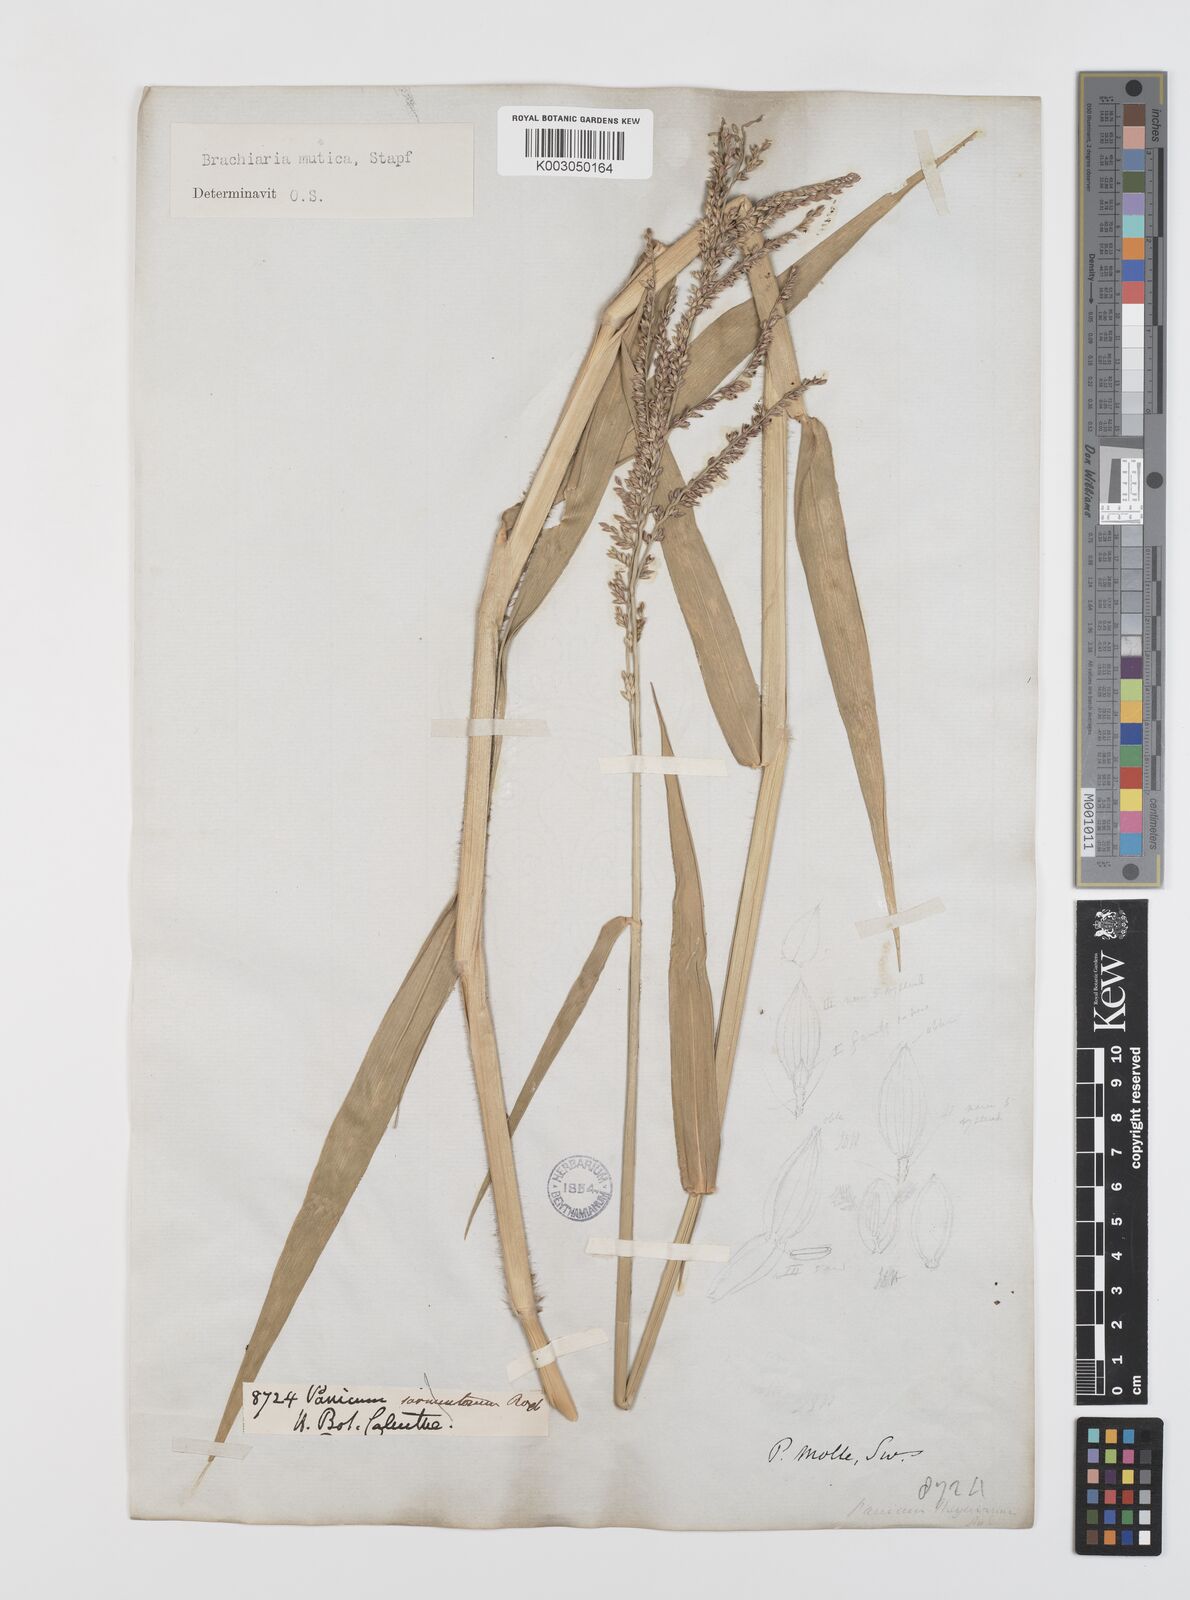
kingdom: Plantae
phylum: Tracheophyta
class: Liliopsida
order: Poales
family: Poaceae
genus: Urochloa
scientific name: Urochloa mutica
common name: Para grass
